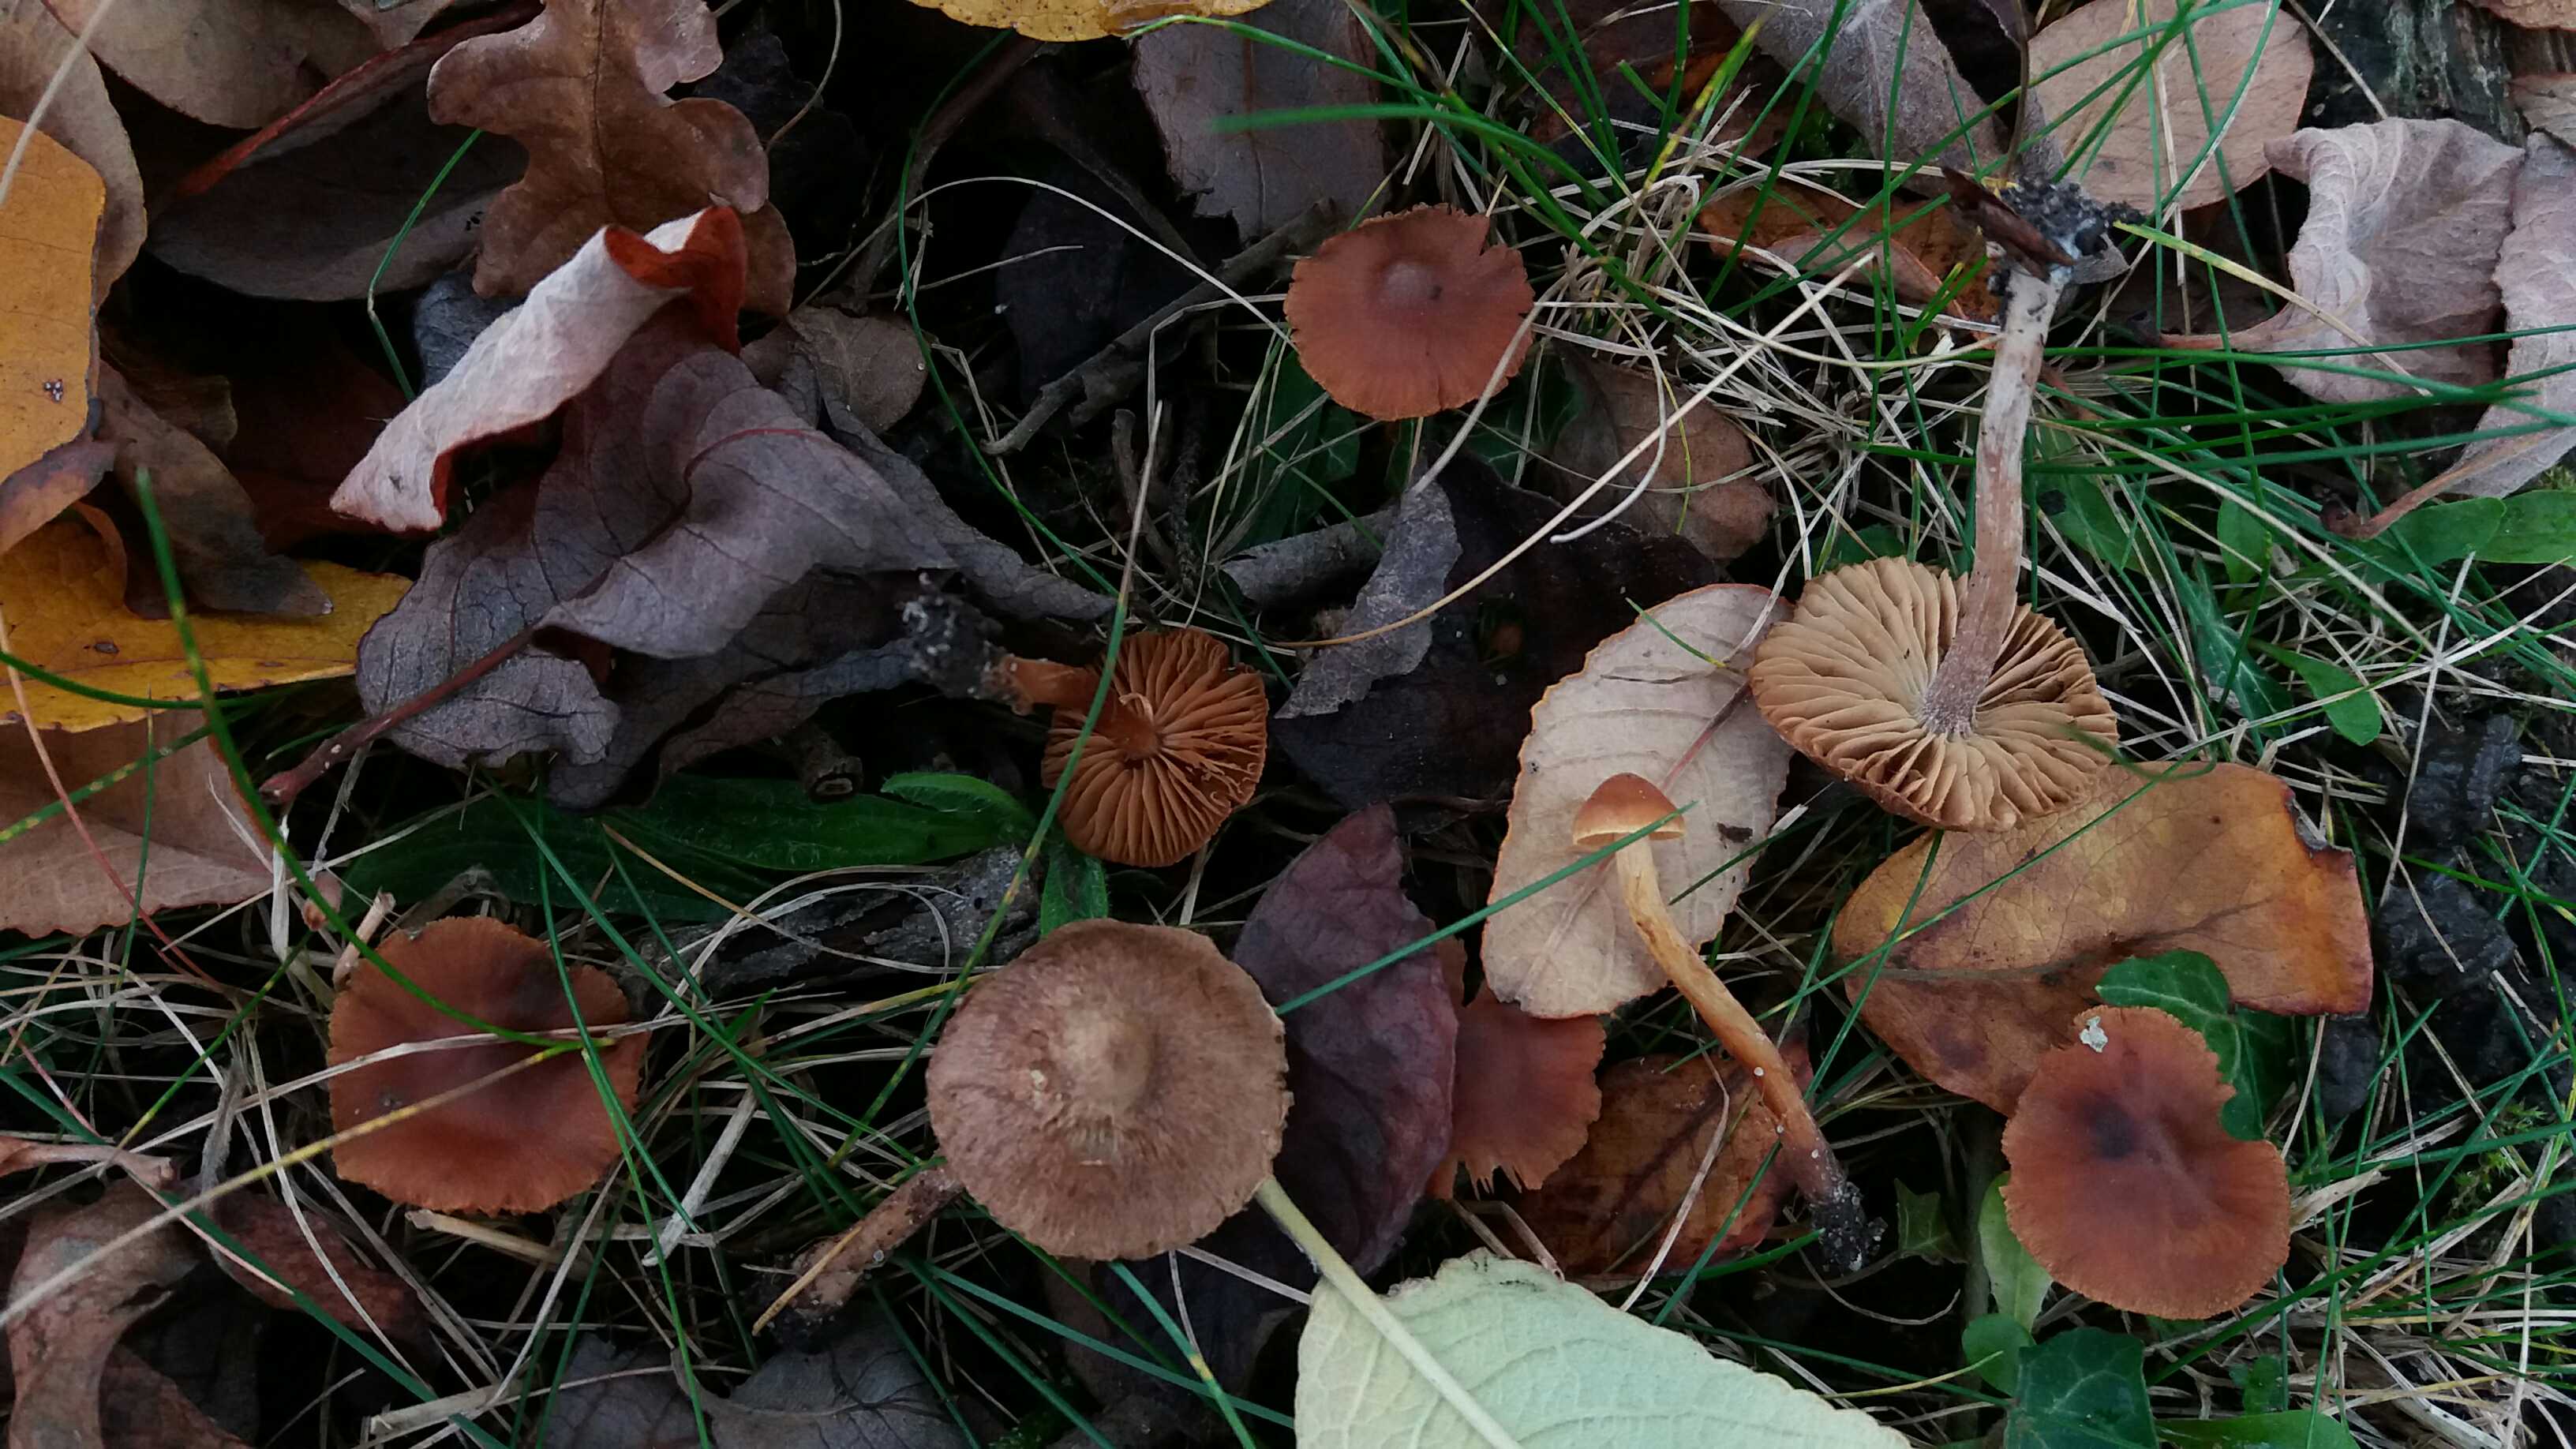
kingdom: Fungi
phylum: Basidiomycota
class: Agaricomycetes
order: Agaricales
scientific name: Agaricales
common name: champignonordenen
